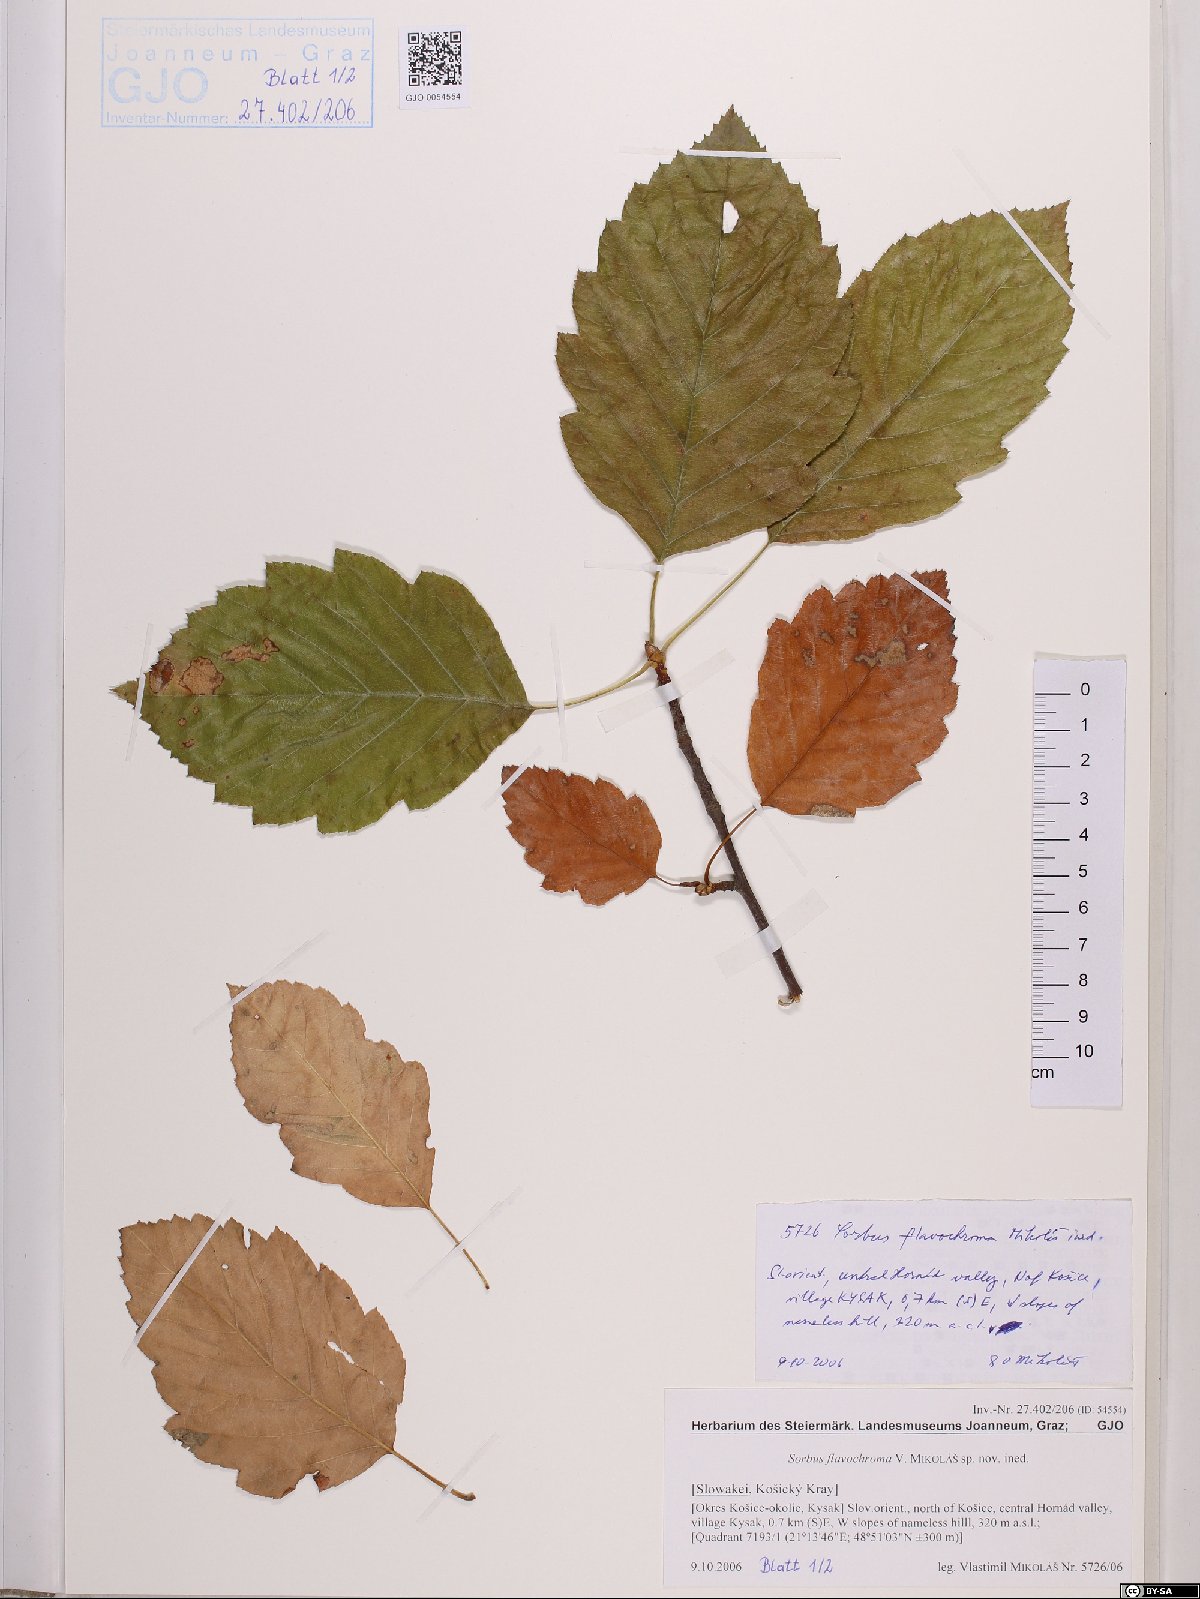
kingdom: Plantae
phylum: Tracheophyta
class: Magnoliopsida
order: Rosales
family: Rosaceae
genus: Sorbus
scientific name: Sorbus
